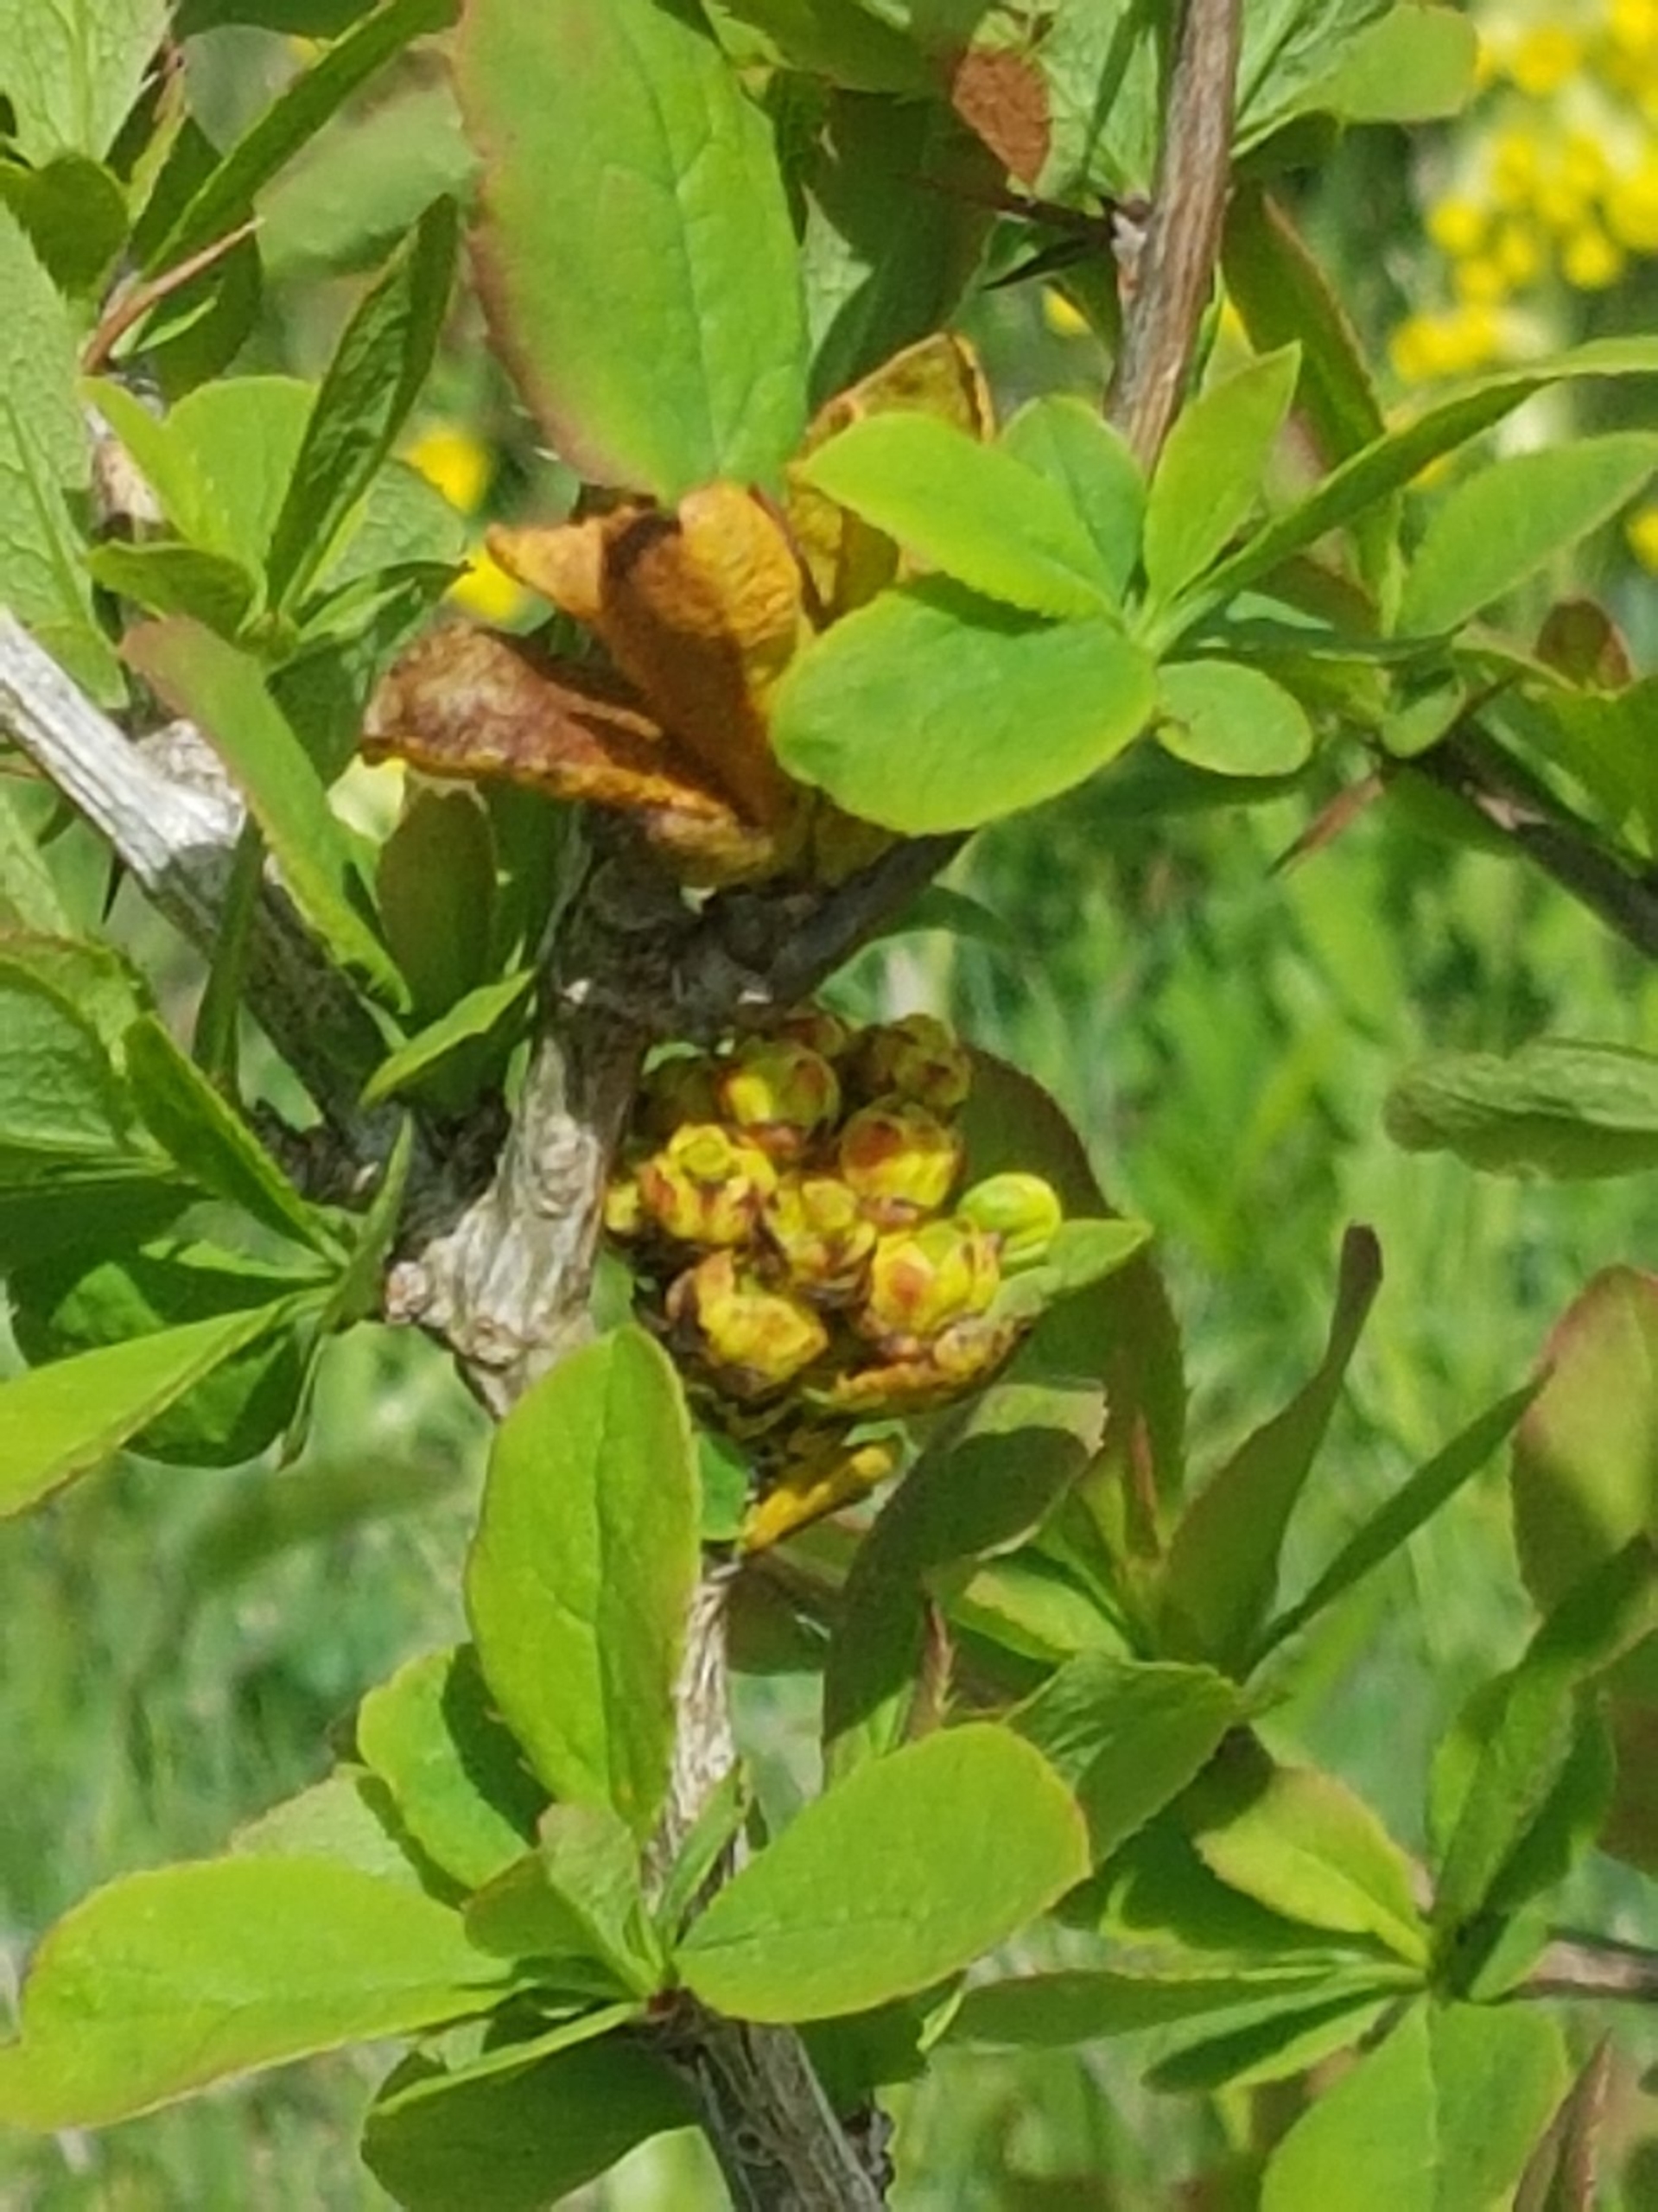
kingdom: Plantae
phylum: Tracheophyta
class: Magnoliopsida
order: Ranunculales
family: Berberidaceae
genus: Berberis
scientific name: Berberis vulgaris
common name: Almindelig berberis
